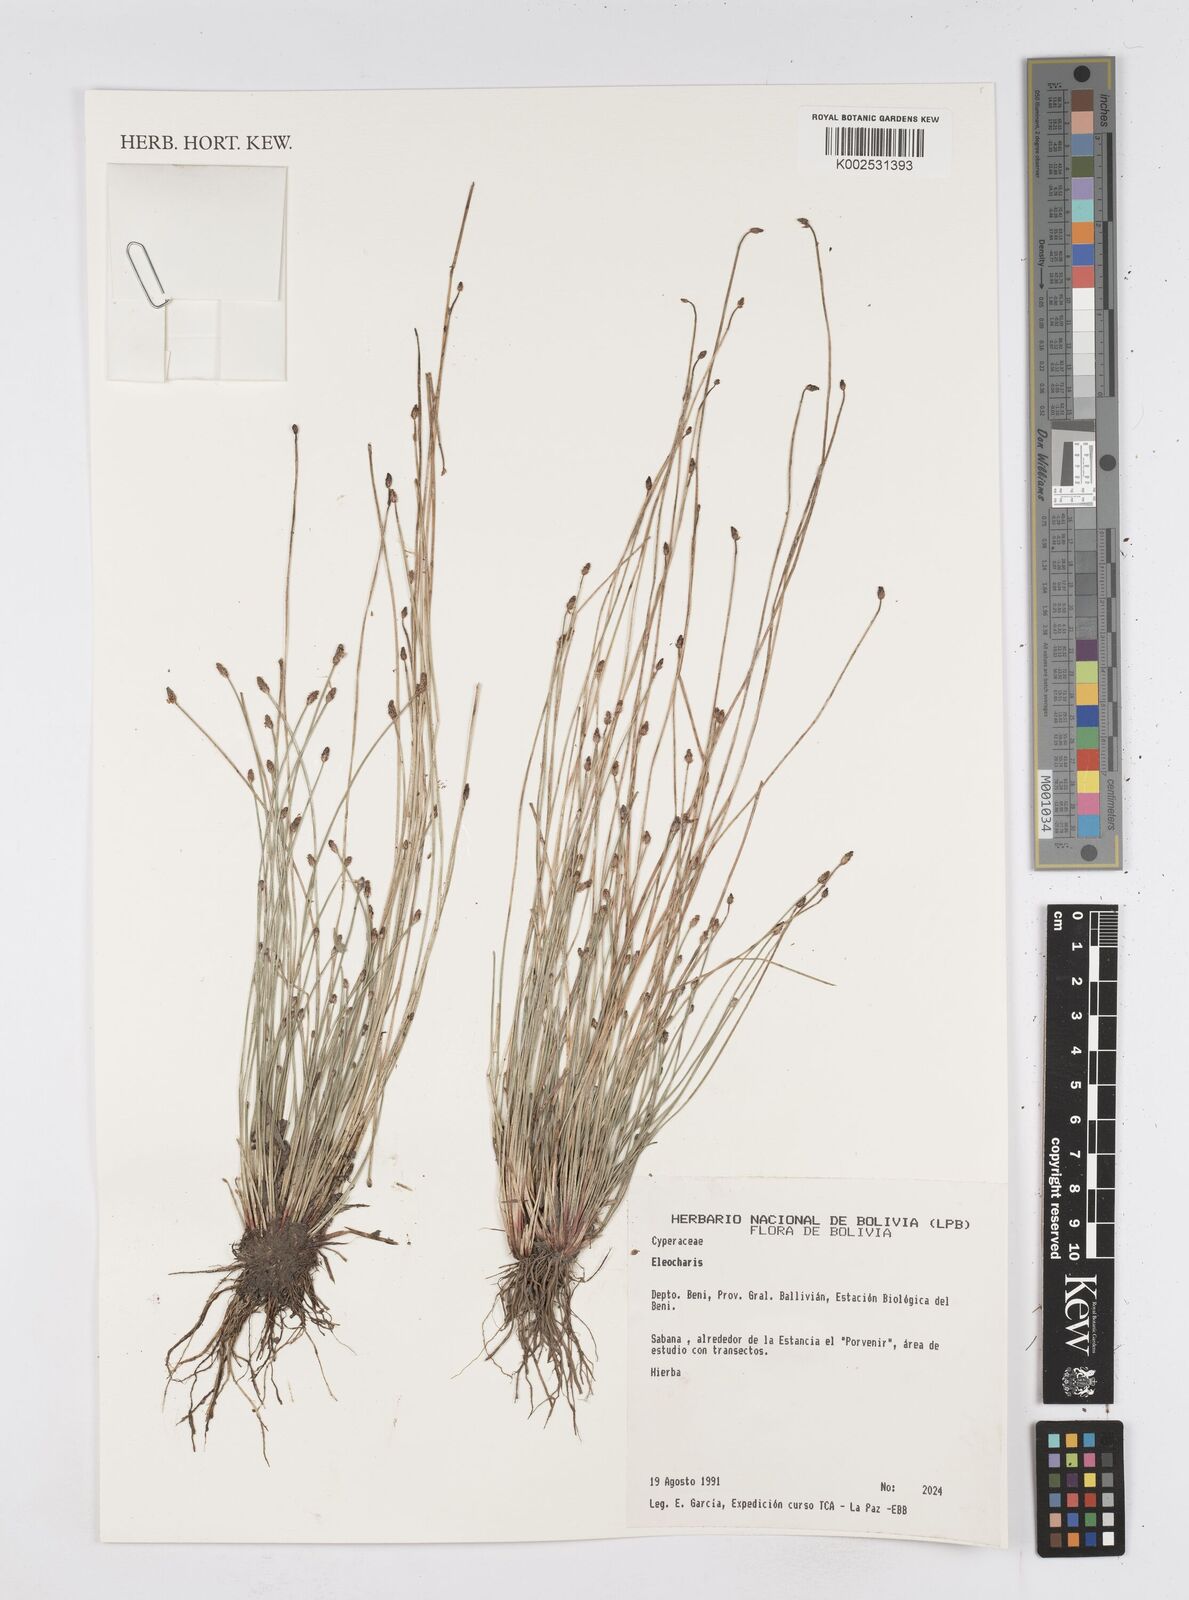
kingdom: Plantae
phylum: Tracheophyta
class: Liliopsida
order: Poales
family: Cyperaceae
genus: Eleocharis
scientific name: Eleocharis
